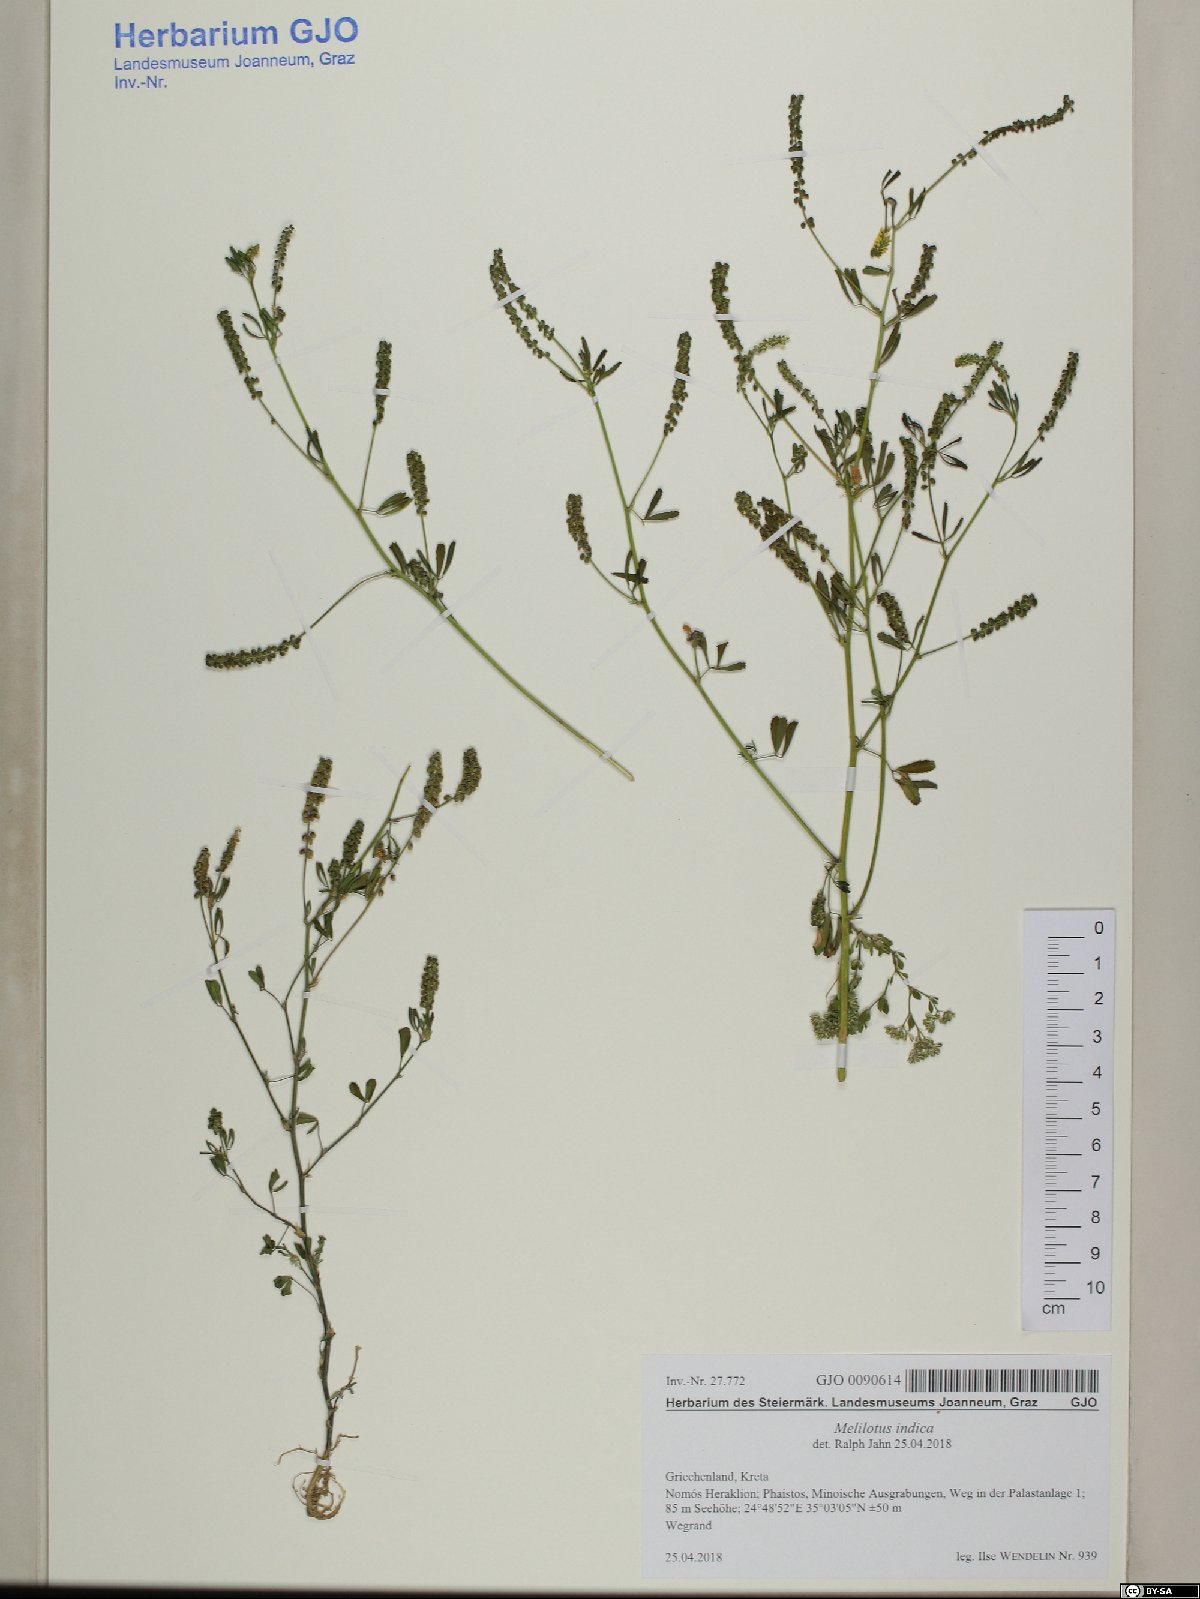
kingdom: Plantae
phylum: Tracheophyta
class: Magnoliopsida
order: Fabales
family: Fabaceae
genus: Melilotus
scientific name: Melilotus indicus
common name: Small melilot
